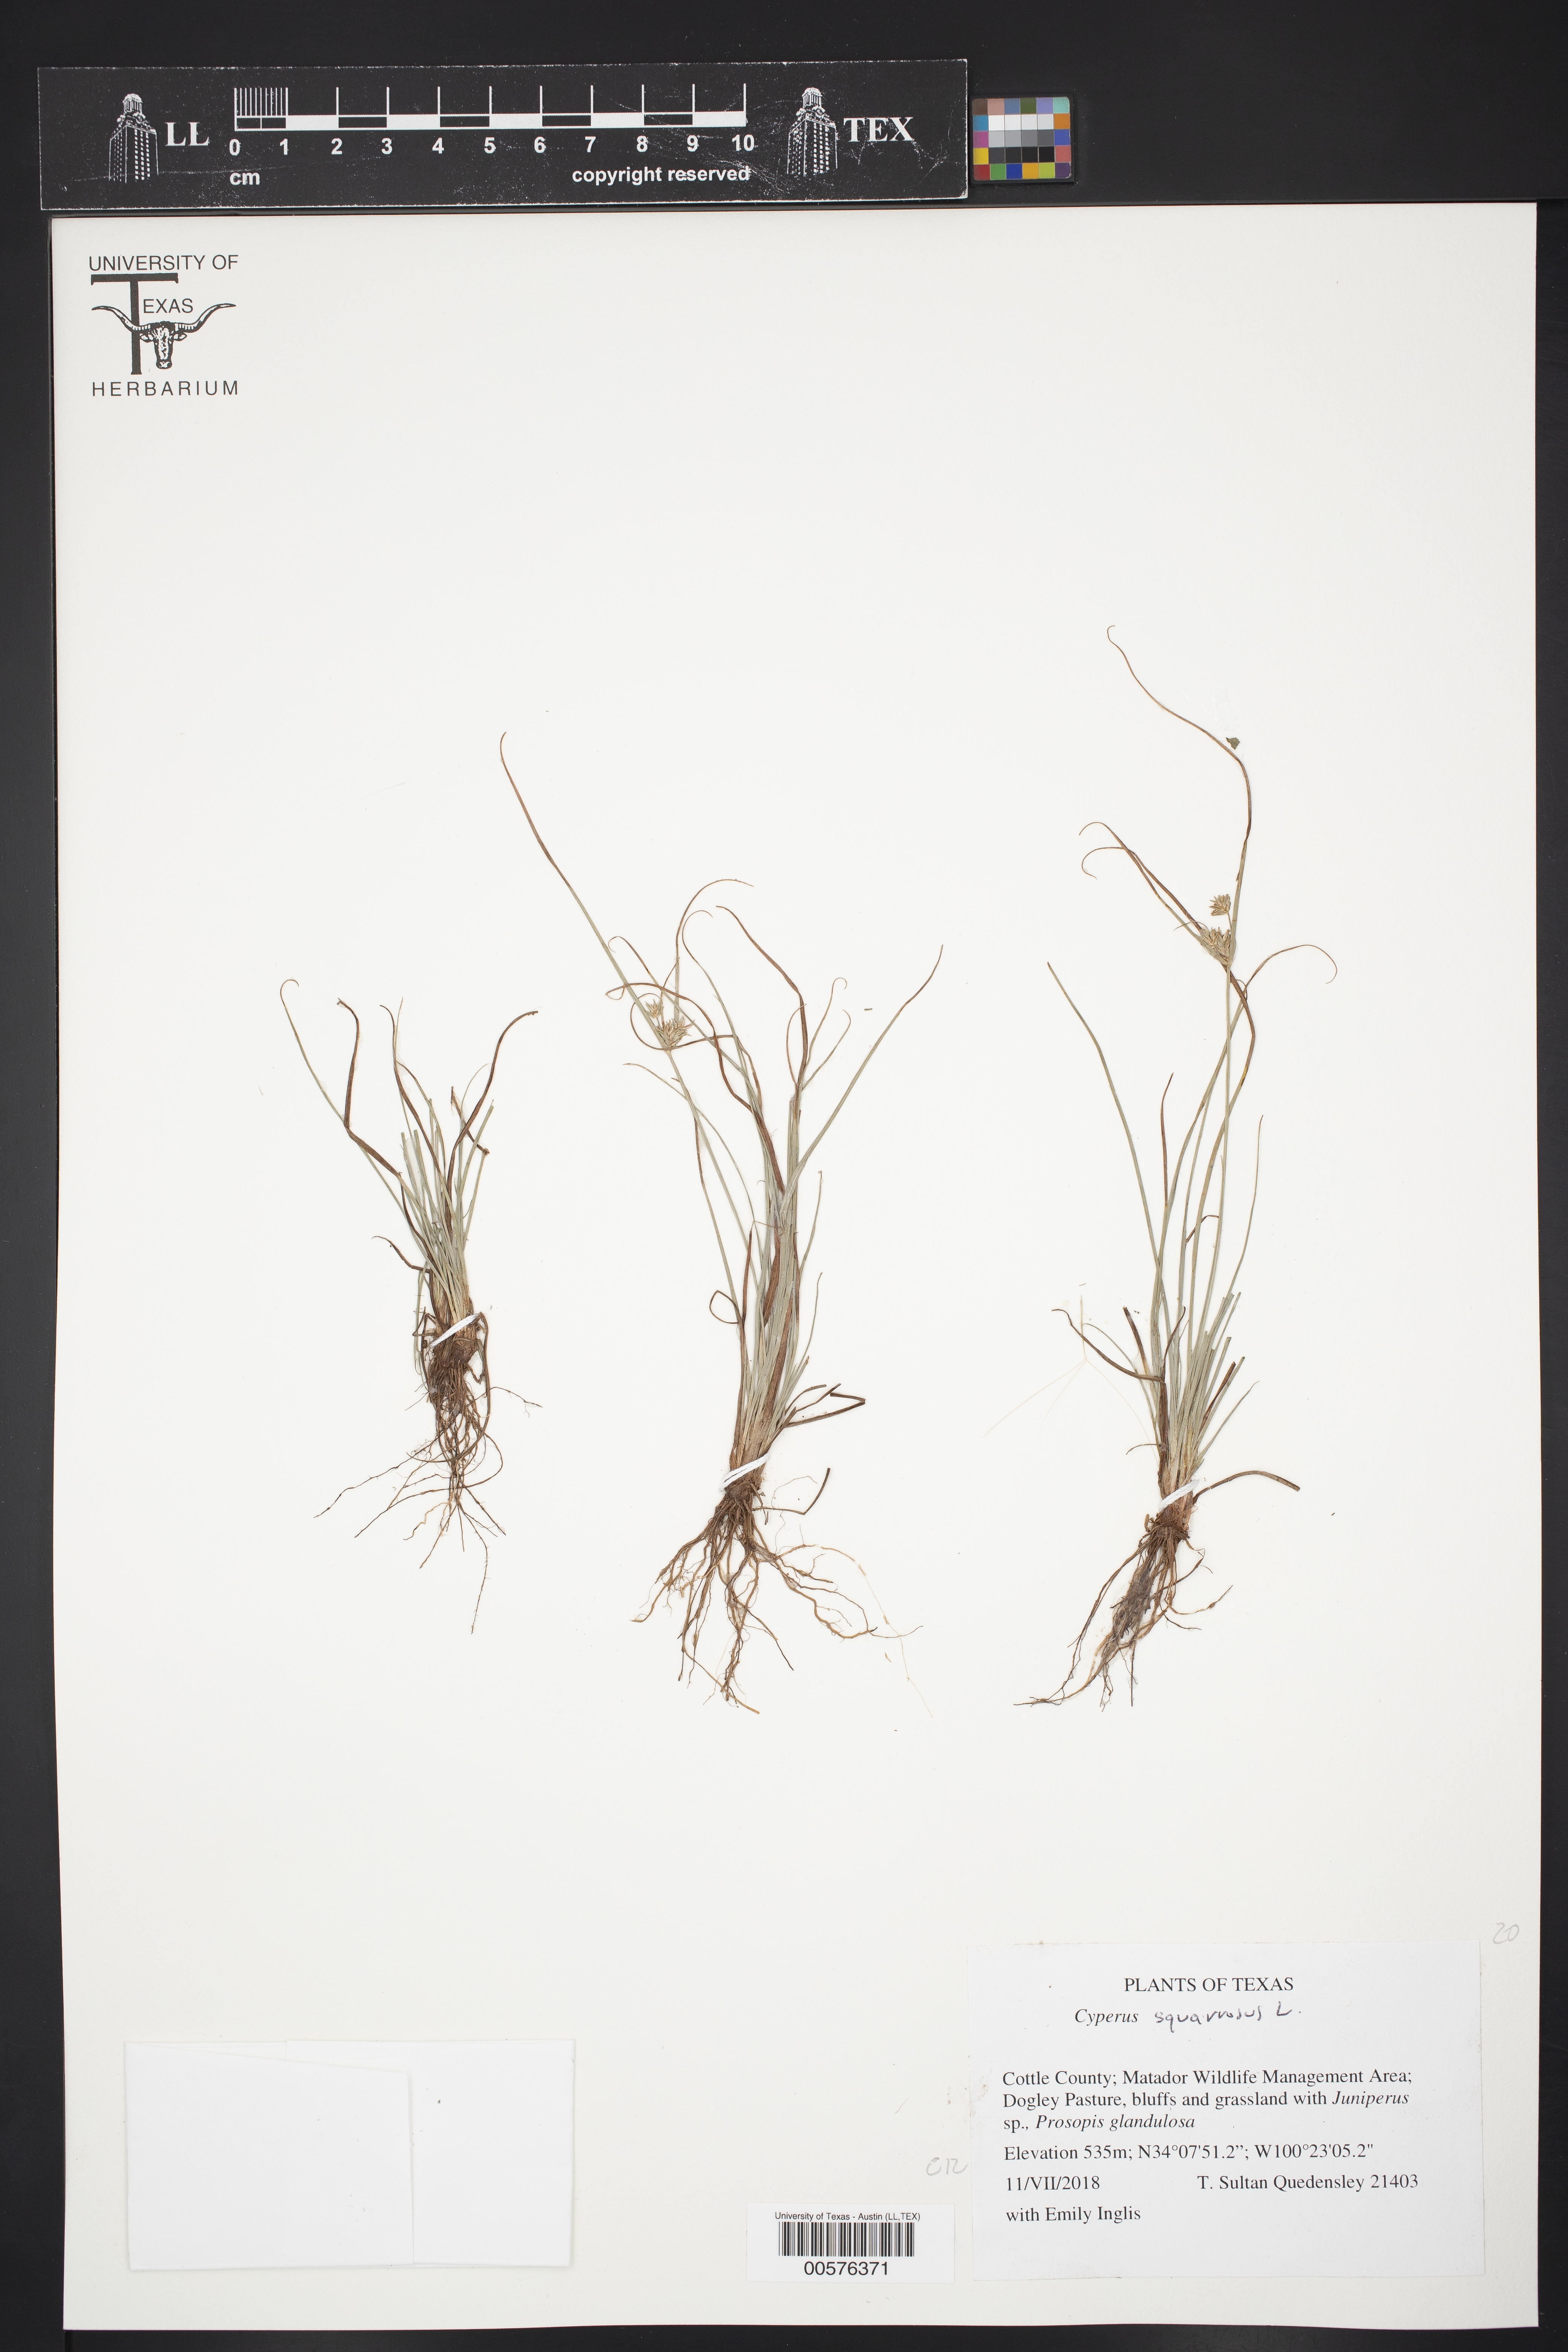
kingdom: Plantae
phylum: Tracheophyta
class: Liliopsida
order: Poales
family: Cyperaceae
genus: Cyperus
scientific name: Cyperus squarrosus
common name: Awned cyperus
